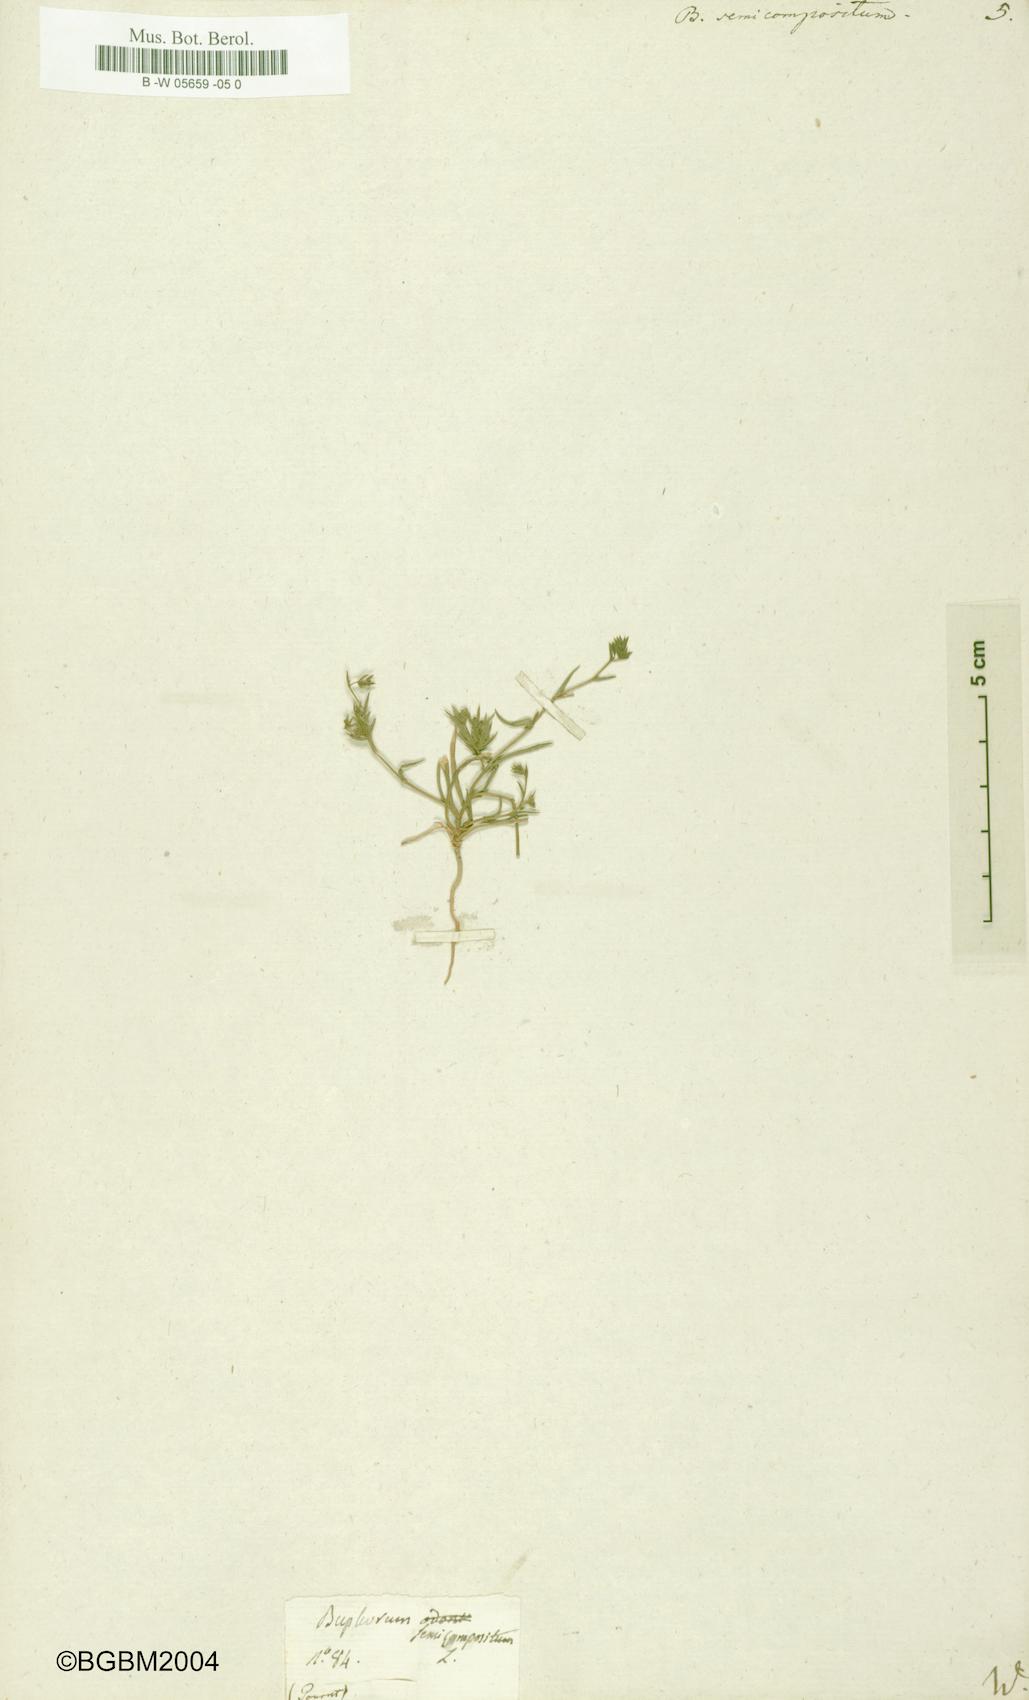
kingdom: Plantae
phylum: Tracheophyta
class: Magnoliopsida
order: Apiales
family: Apiaceae
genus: Bupleurum
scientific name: Bupleurum semicompositum
